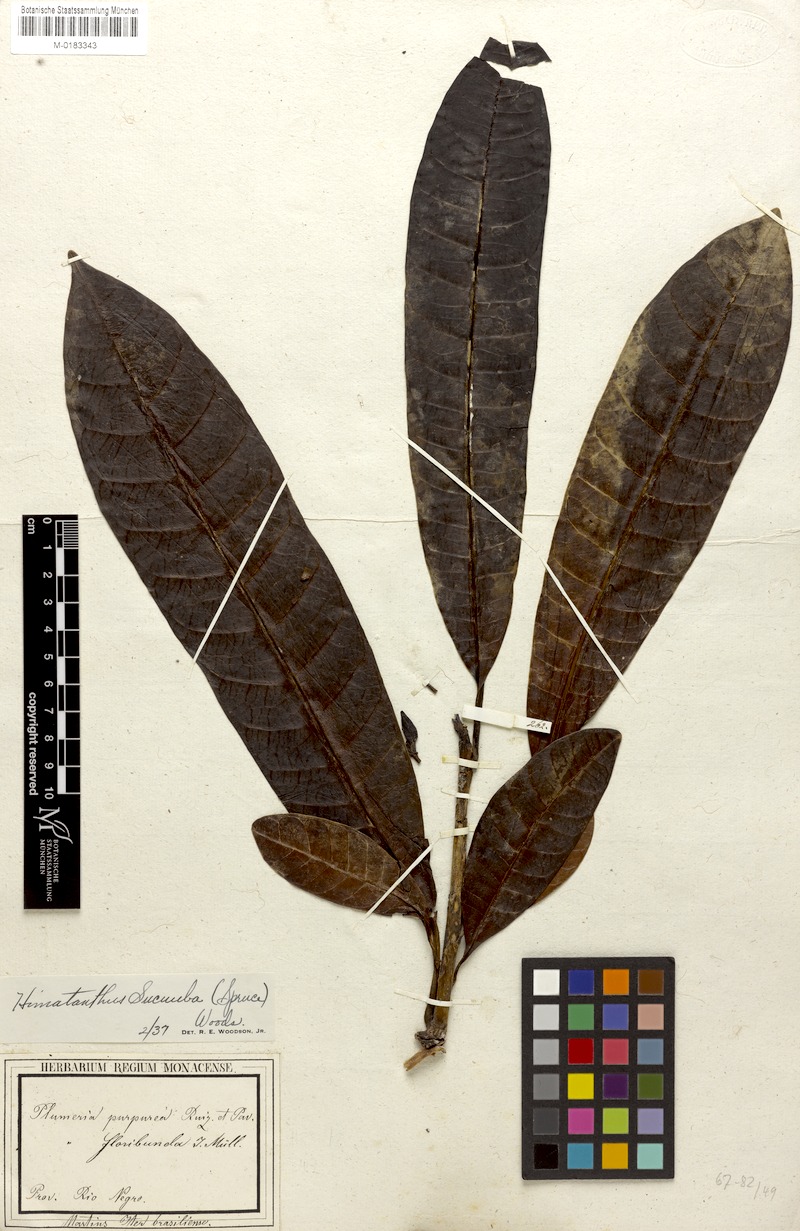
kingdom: Plantae
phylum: Tracheophyta
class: Magnoliopsida
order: Gentianales
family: Apocynaceae
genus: Himatanthus
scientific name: Himatanthus articulatus
